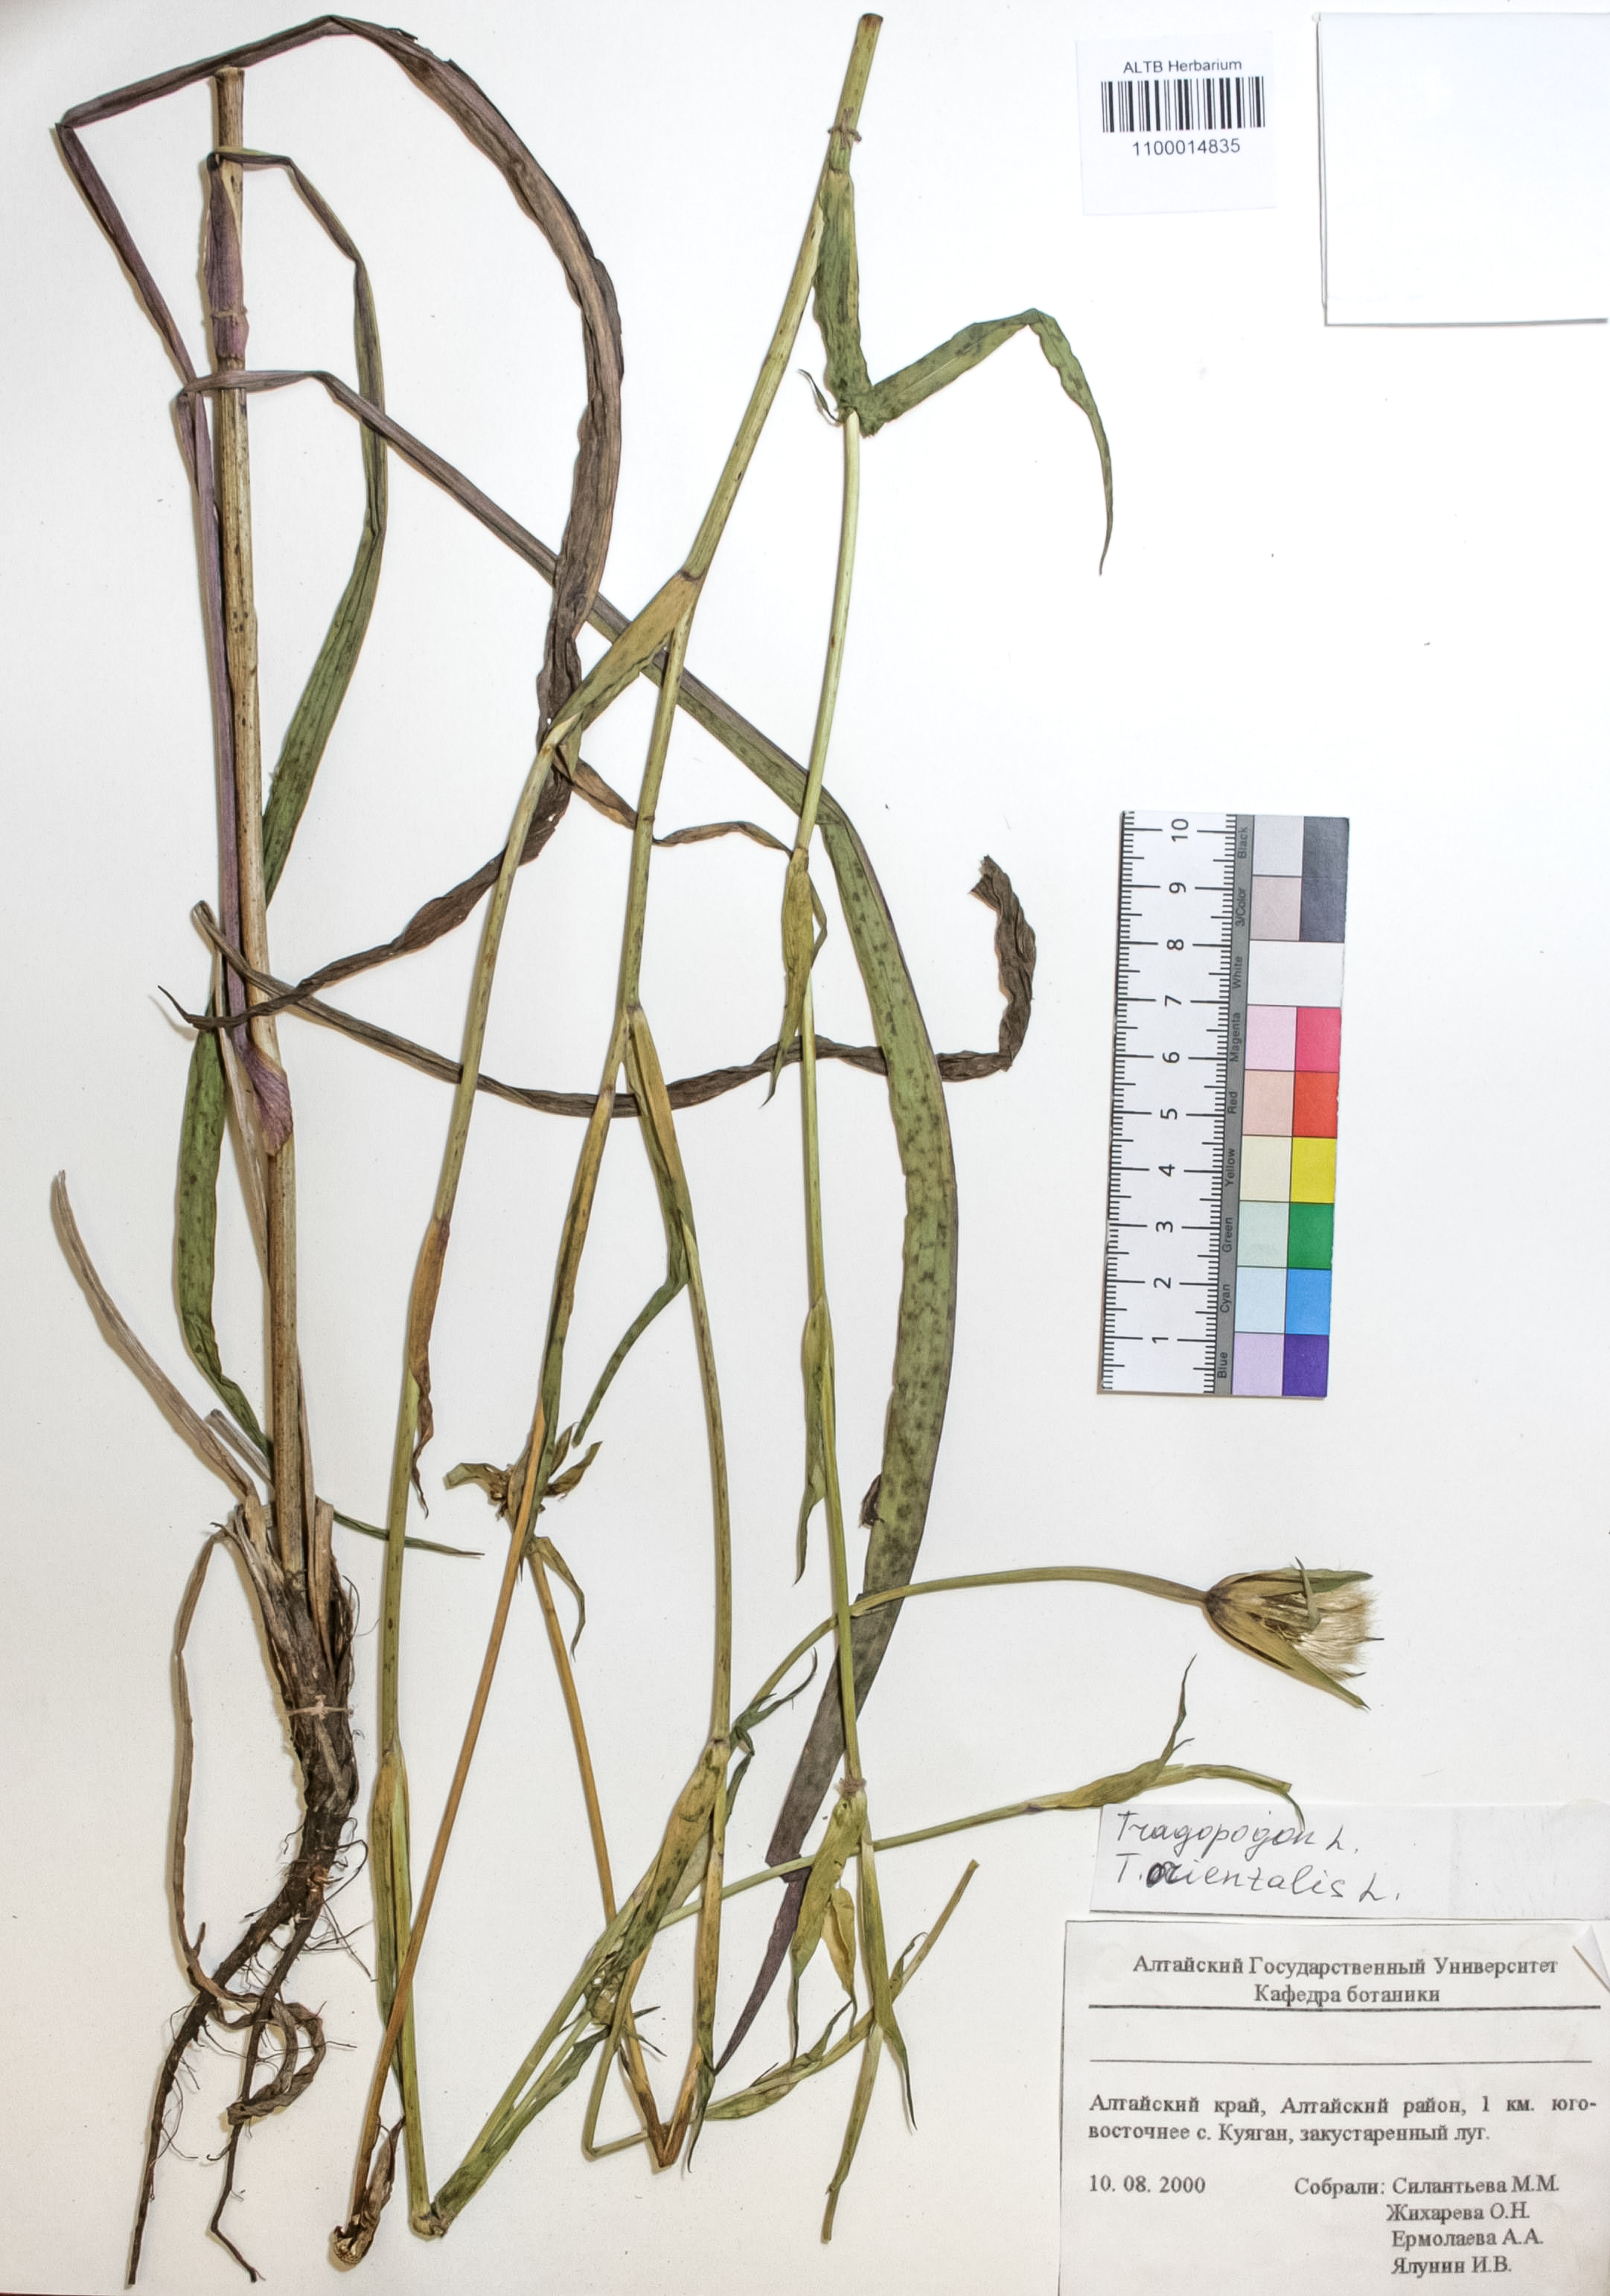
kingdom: Plantae
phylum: Tracheophyta
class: Magnoliopsida
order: Asterales
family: Asteraceae
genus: Tragopogon
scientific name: Tragopogon orientalis
